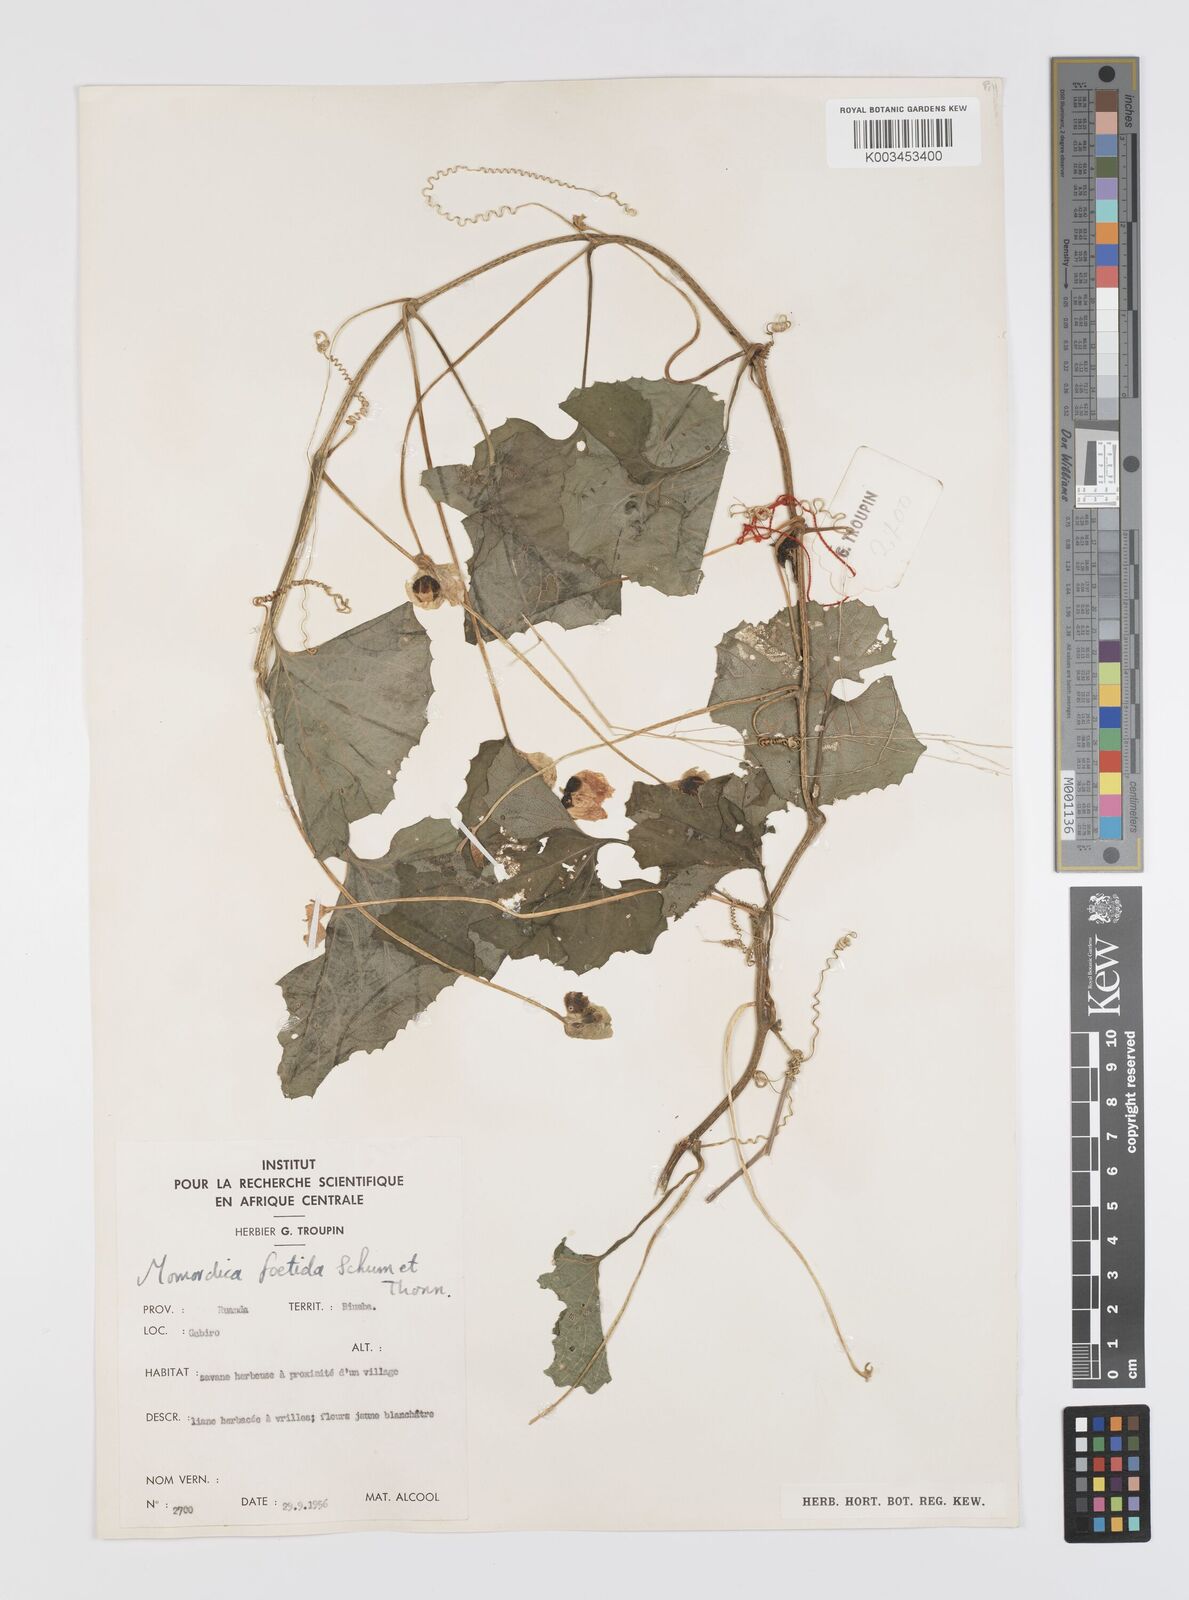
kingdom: Plantae
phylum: Tracheophyta
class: Magnoliopsida
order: Cucurbitales
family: Cucurbitaceae
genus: Momordica
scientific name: Momordica foetida
